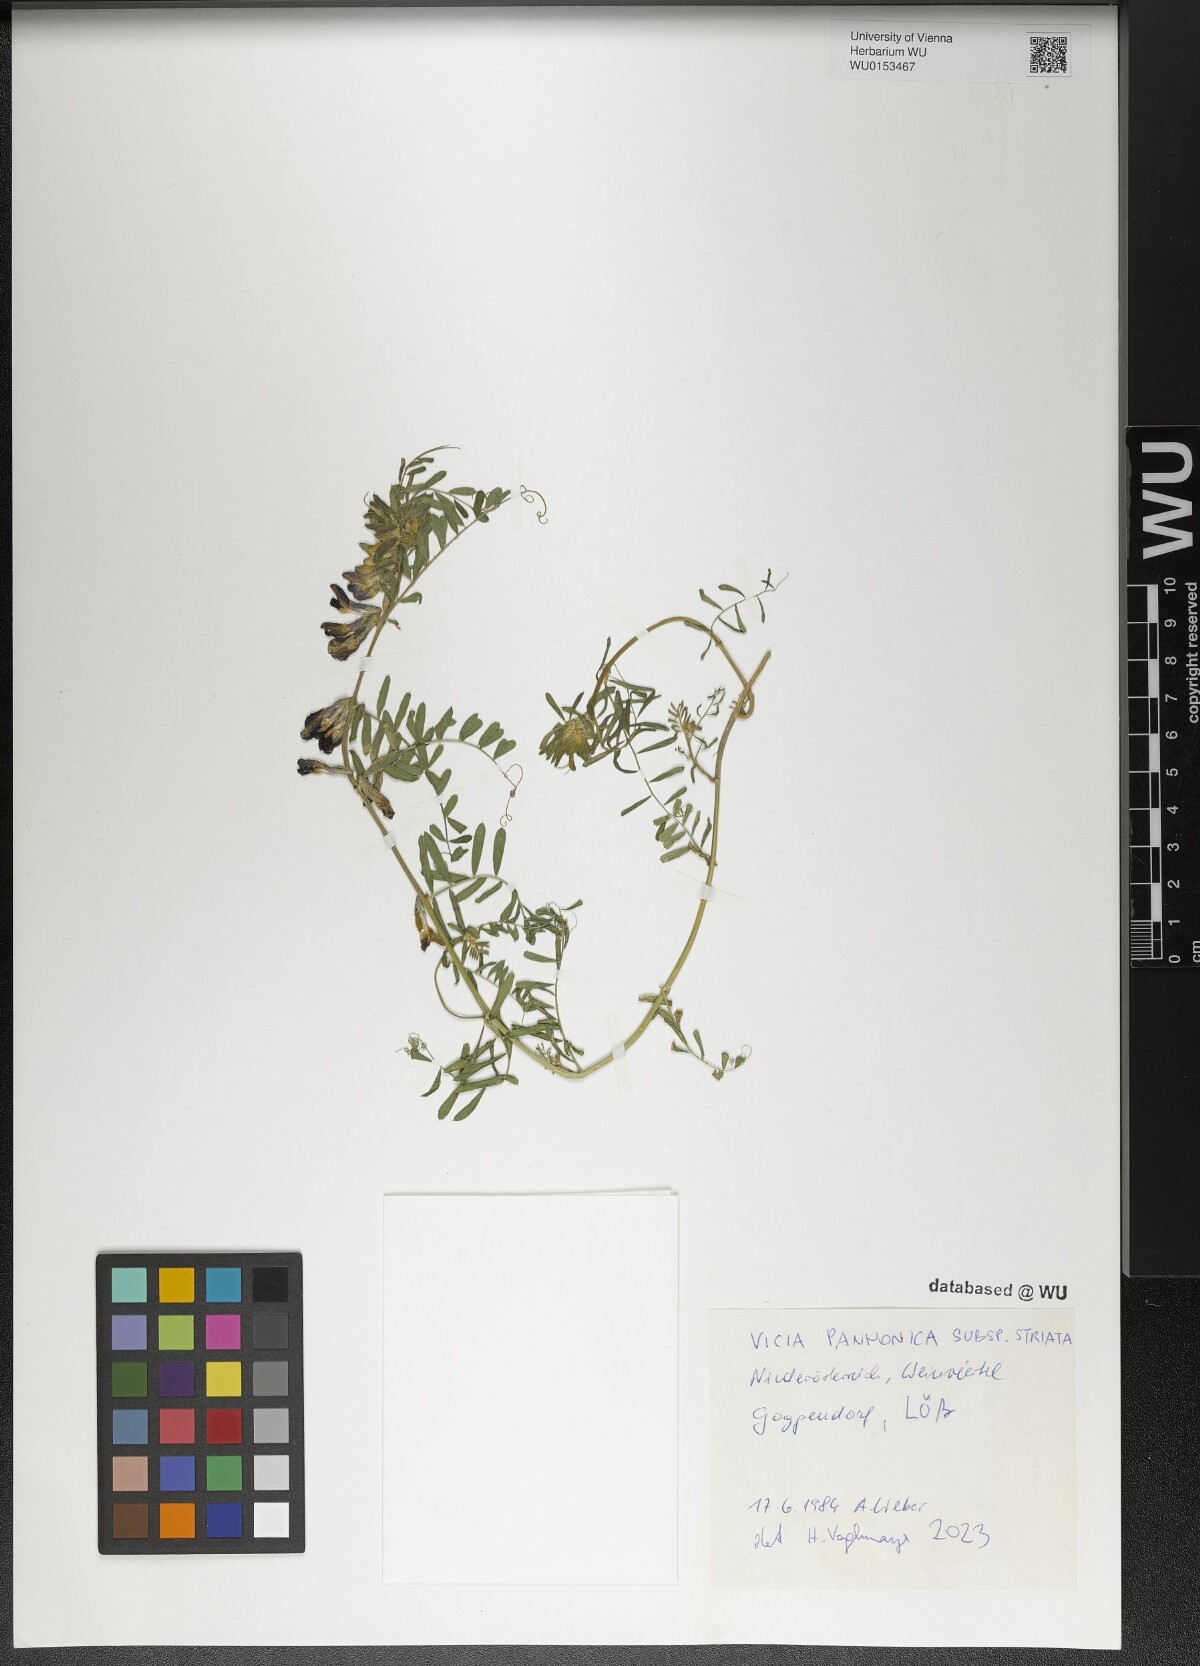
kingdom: Plantae
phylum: Tracheophyta
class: Magnoliopsida
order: Fabales
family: Fabaceae
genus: Vicia
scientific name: Vicia pannonica
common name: Hungarian vetch
